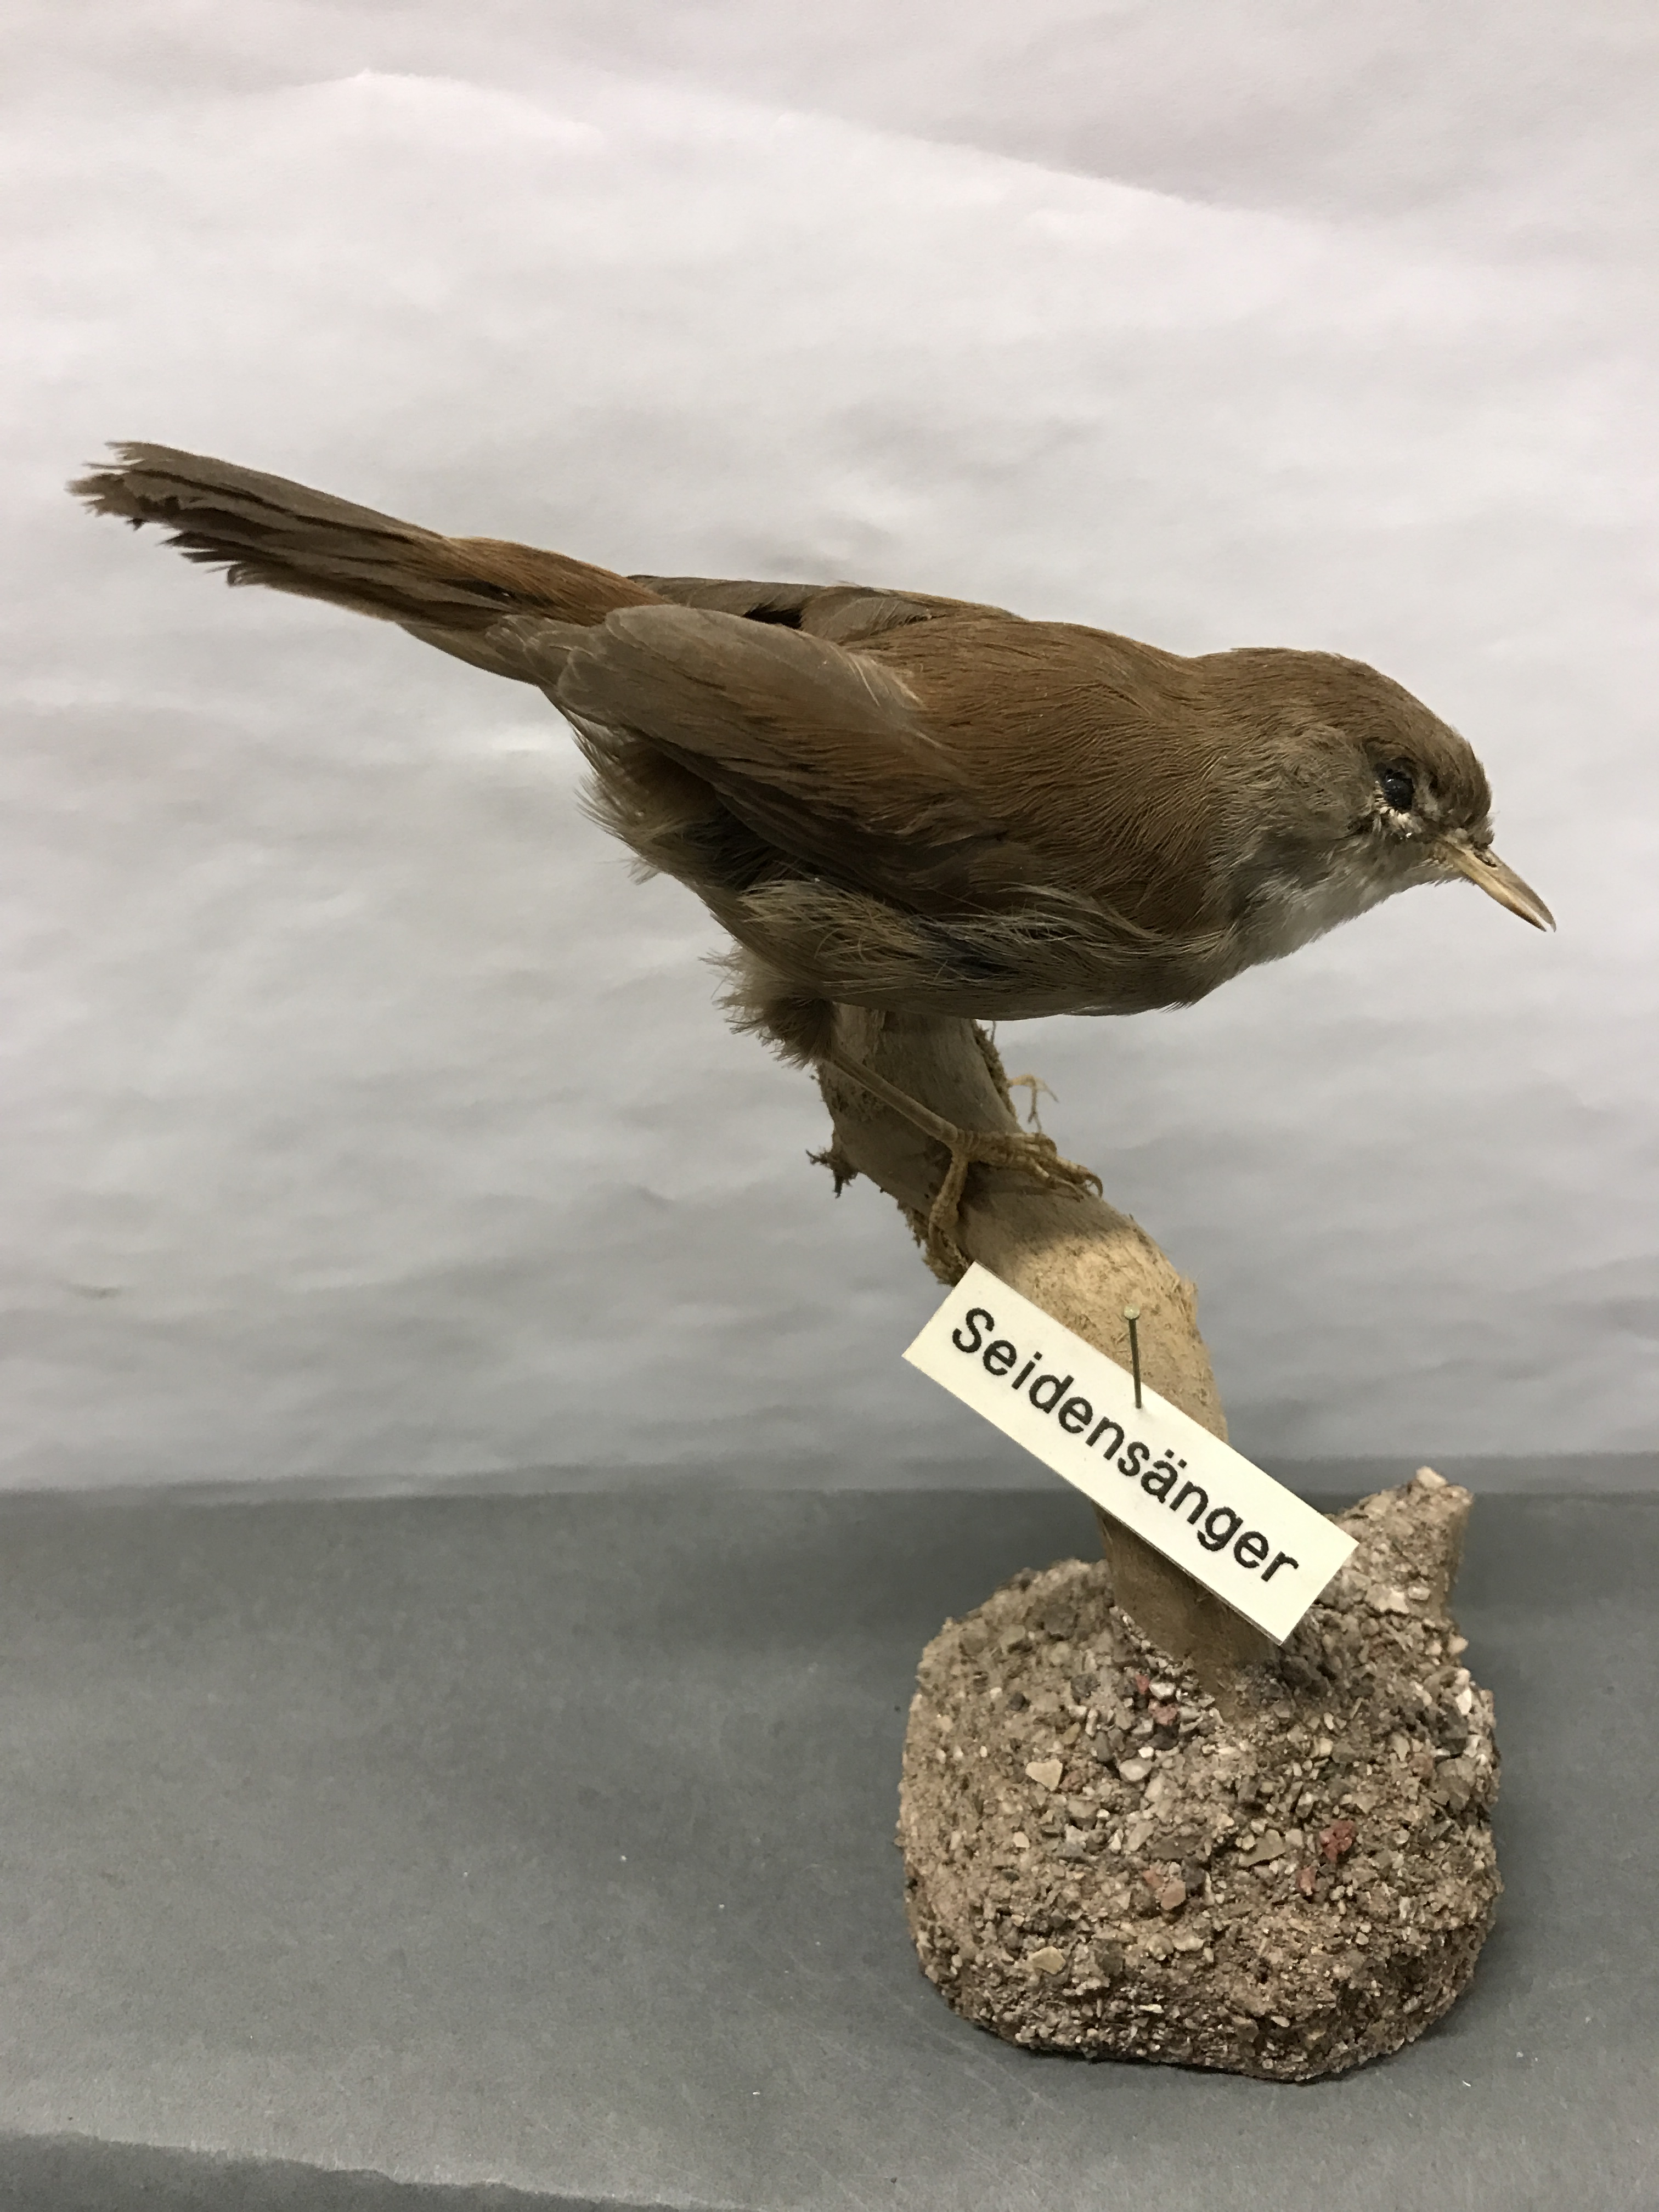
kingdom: Animalia
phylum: Chordata
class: Aves
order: Passeriformes
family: Cettiidae
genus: Cettia
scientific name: Cettia cetti
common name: Cetti's warbler
